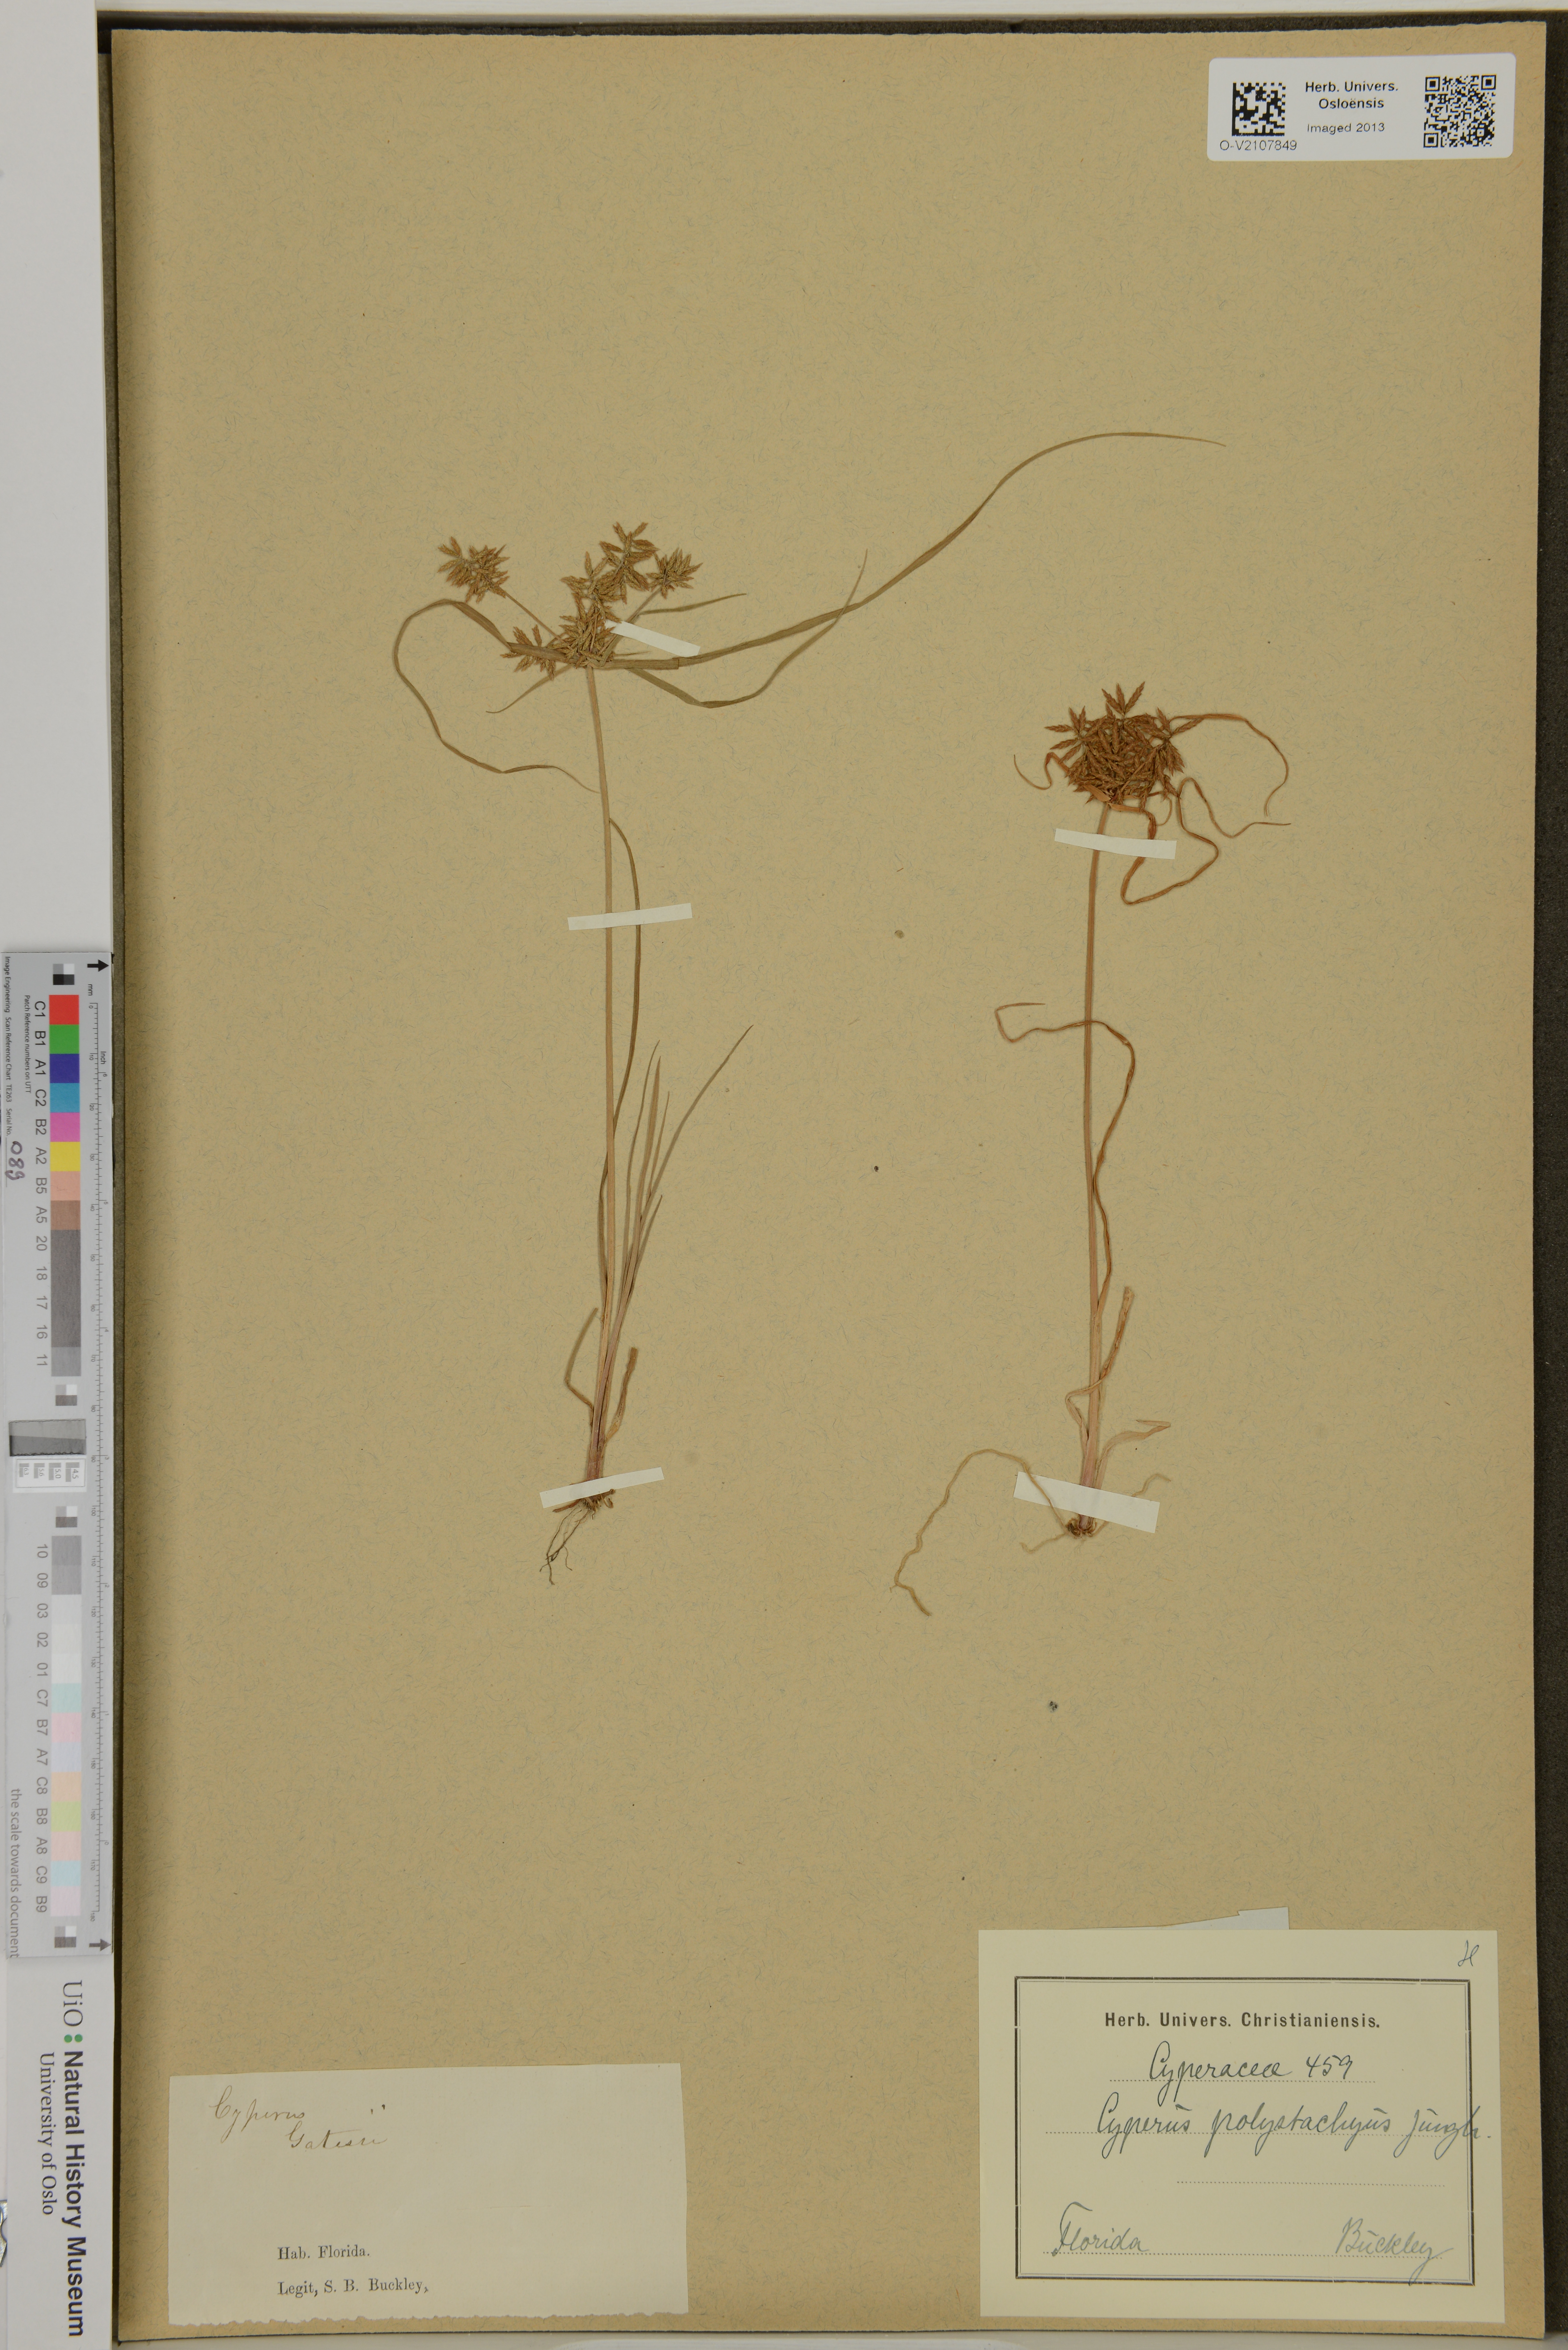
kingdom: Plantae
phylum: Tracheophyta
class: Liliopsida
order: Poales
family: Cyperaceae
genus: Cyperus
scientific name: Cyperus polystachyus
